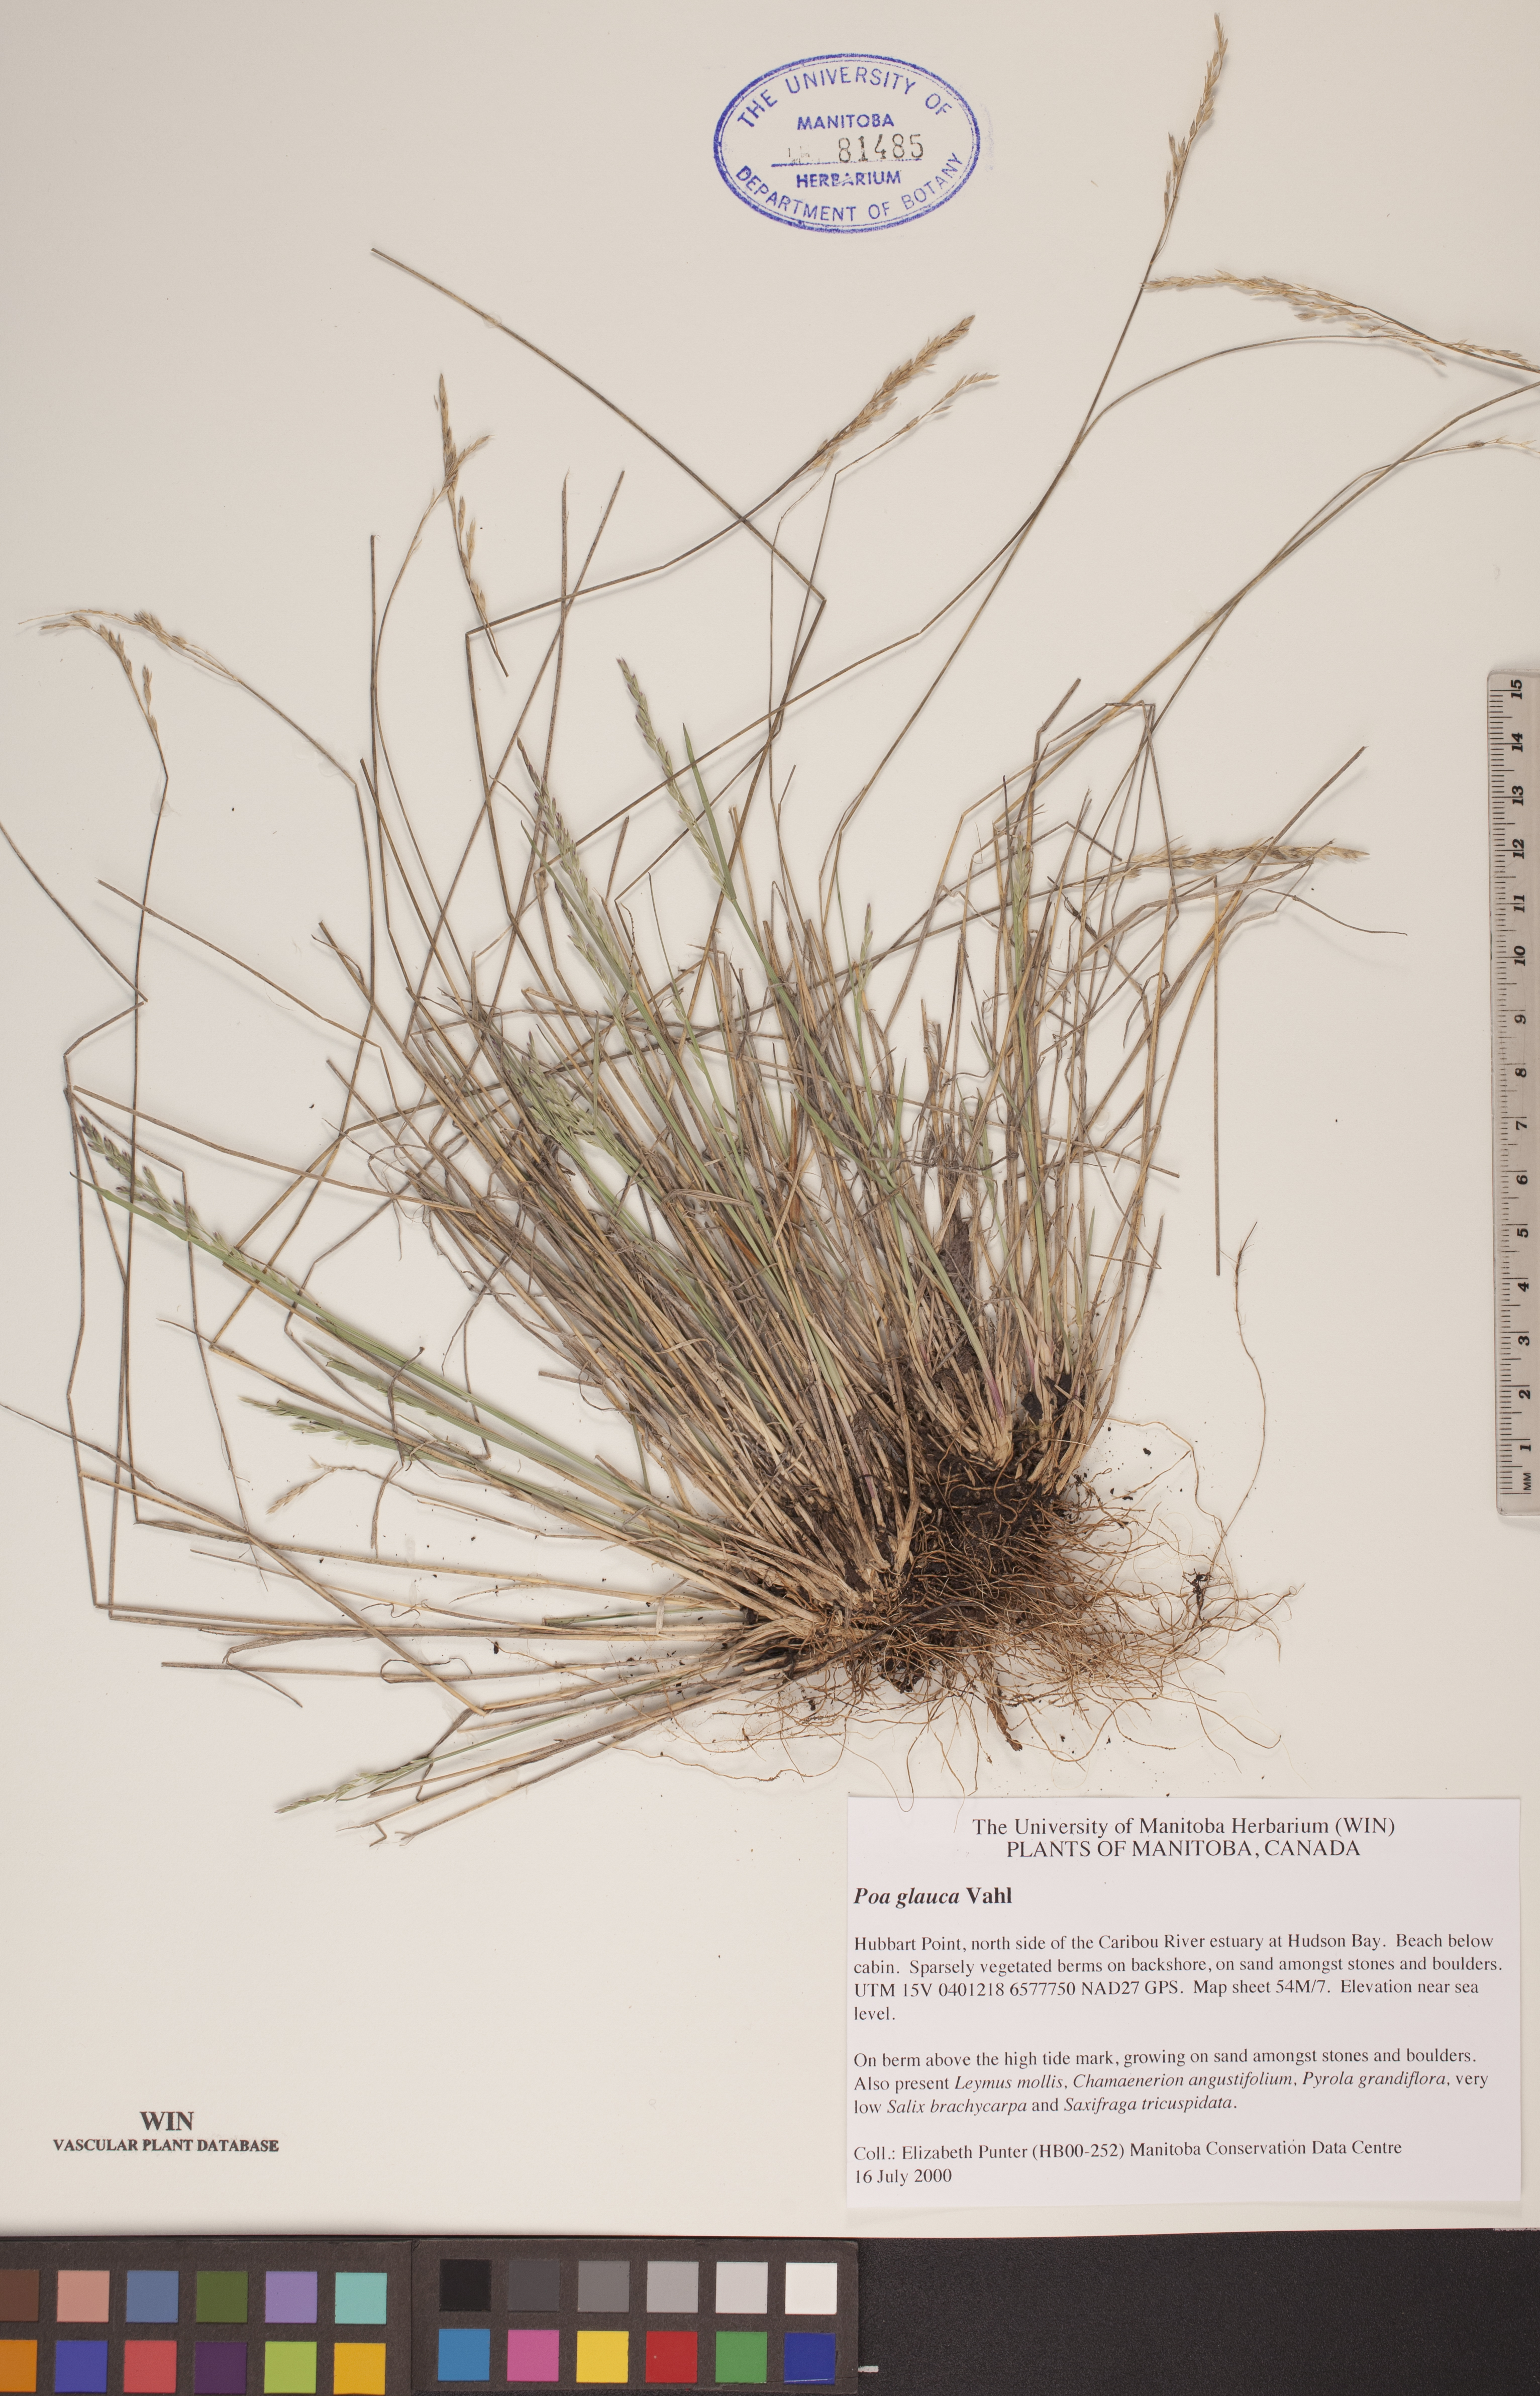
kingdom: Plantae
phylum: Tracheophyta
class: Liliopsida
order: Poales
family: Poaceae
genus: Poa
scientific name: Poa glauca
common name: Glaucous bluegrass
